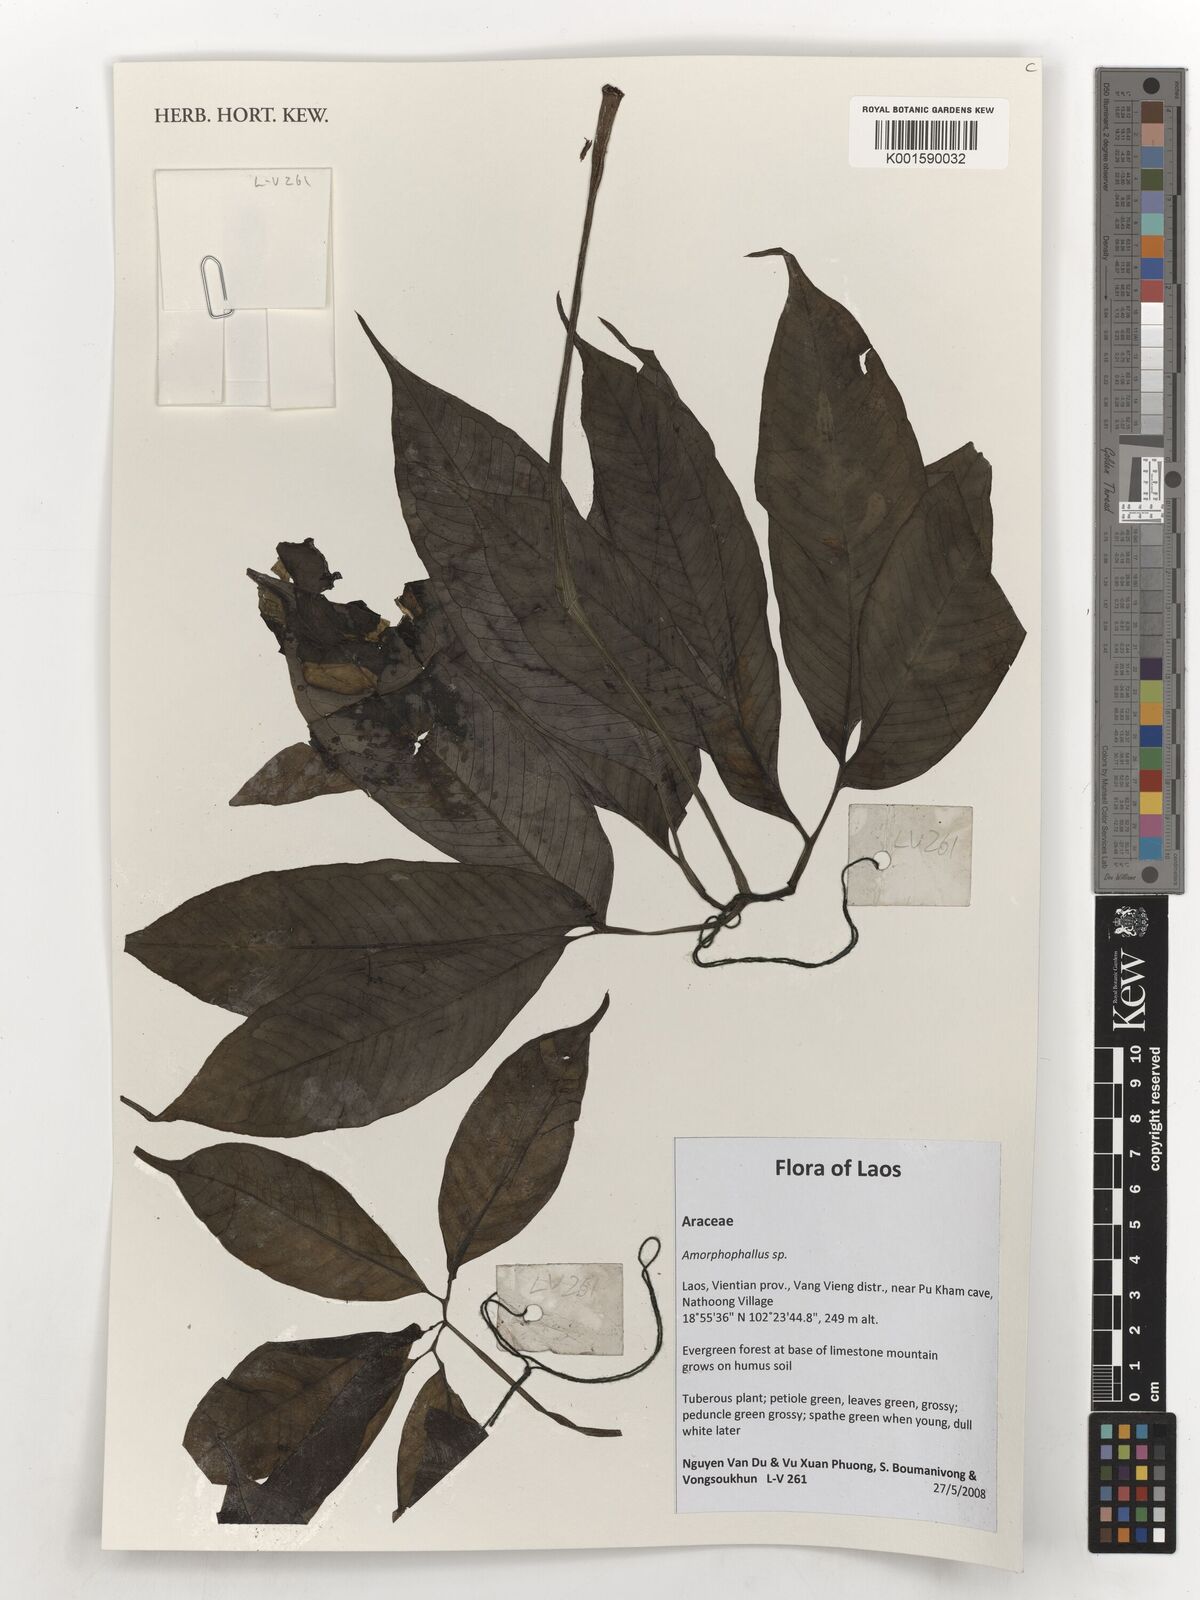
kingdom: Plantae
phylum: Tracheophyta
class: Liliopsida
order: Alismatales
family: Araceae
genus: Amorphophallus
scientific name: Amorphophallus
